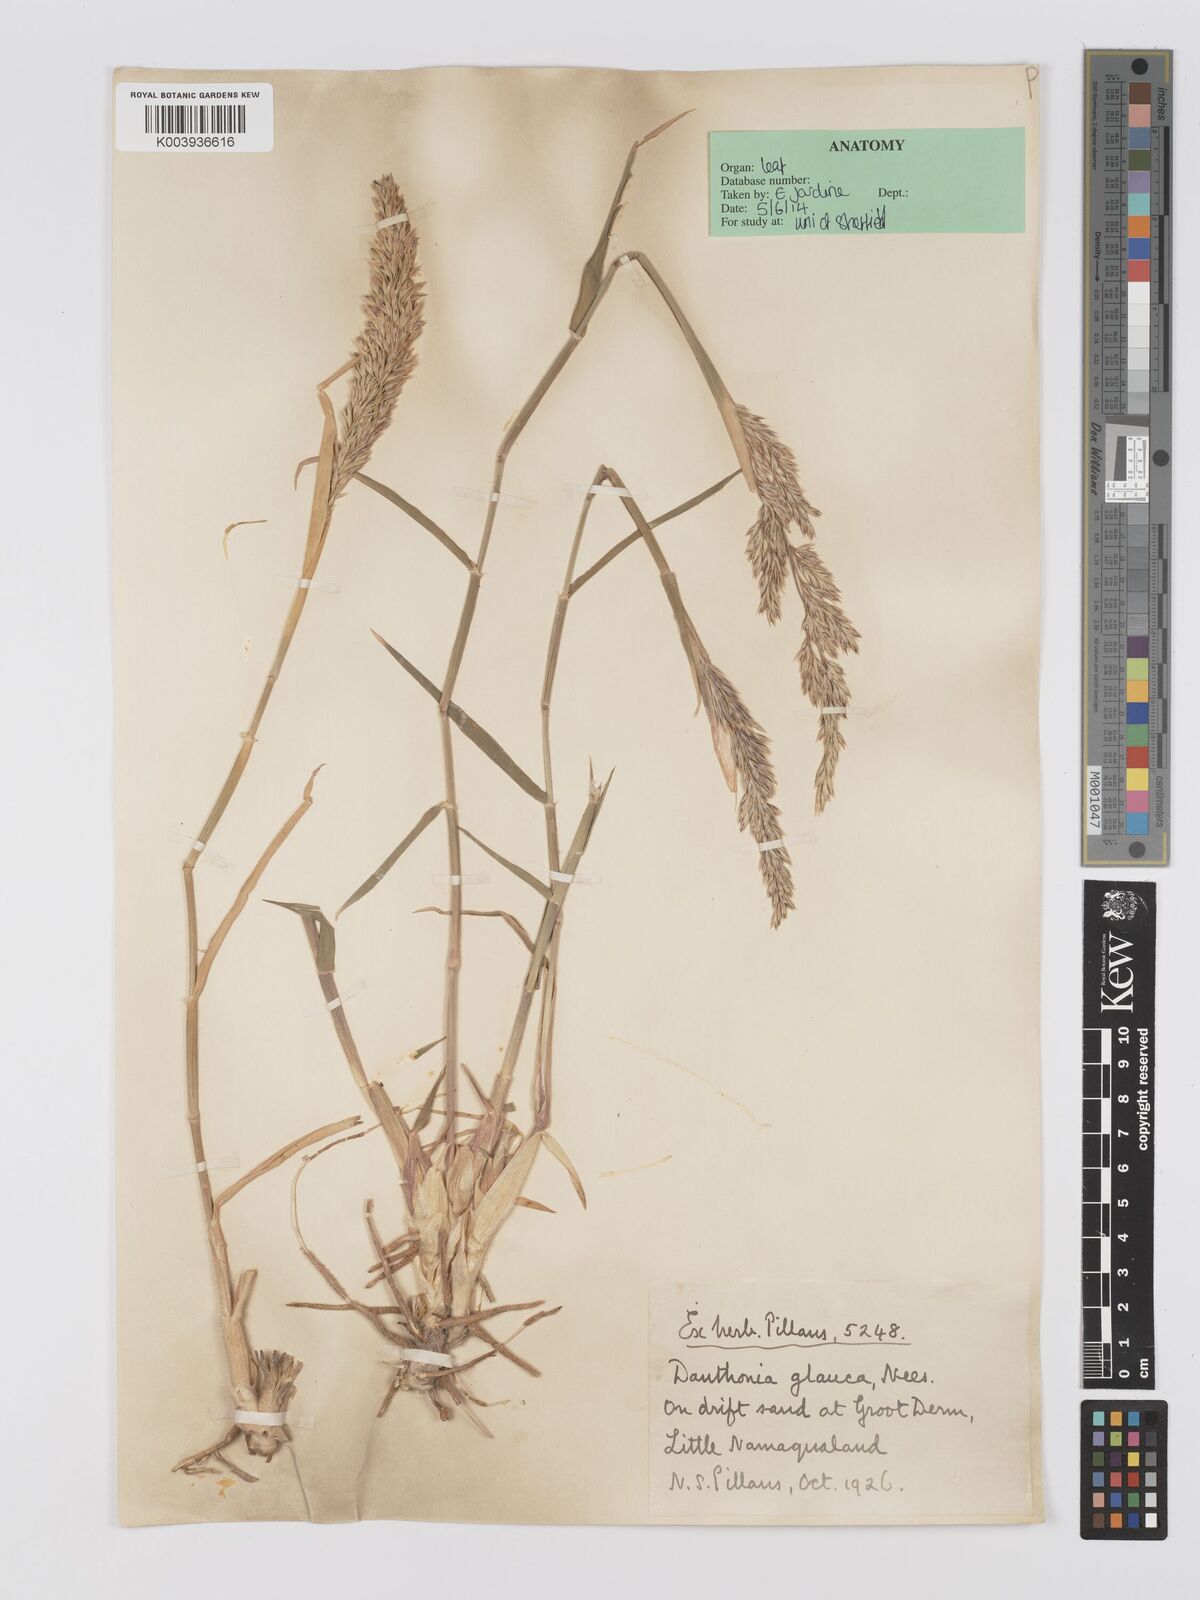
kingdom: Plantae
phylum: Tracheophyta
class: Liliopsida
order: Poales
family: Poaceae
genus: Centropodia
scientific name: Centropodia glauca
